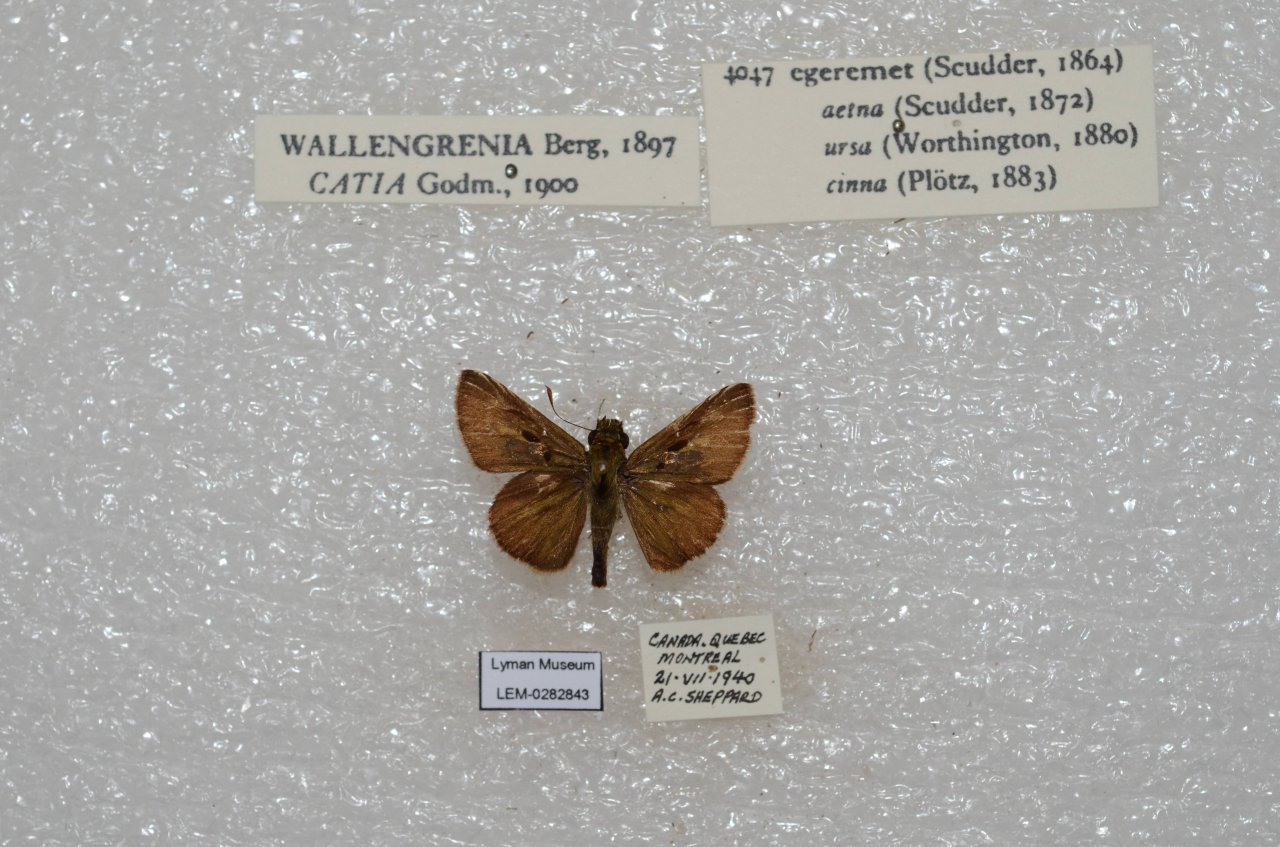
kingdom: Animalia
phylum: Arthropoda
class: Insecta
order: Lepidoptera
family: Hesperiidae
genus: Polites
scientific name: Polites egeremet
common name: Northern Broken-Dash
